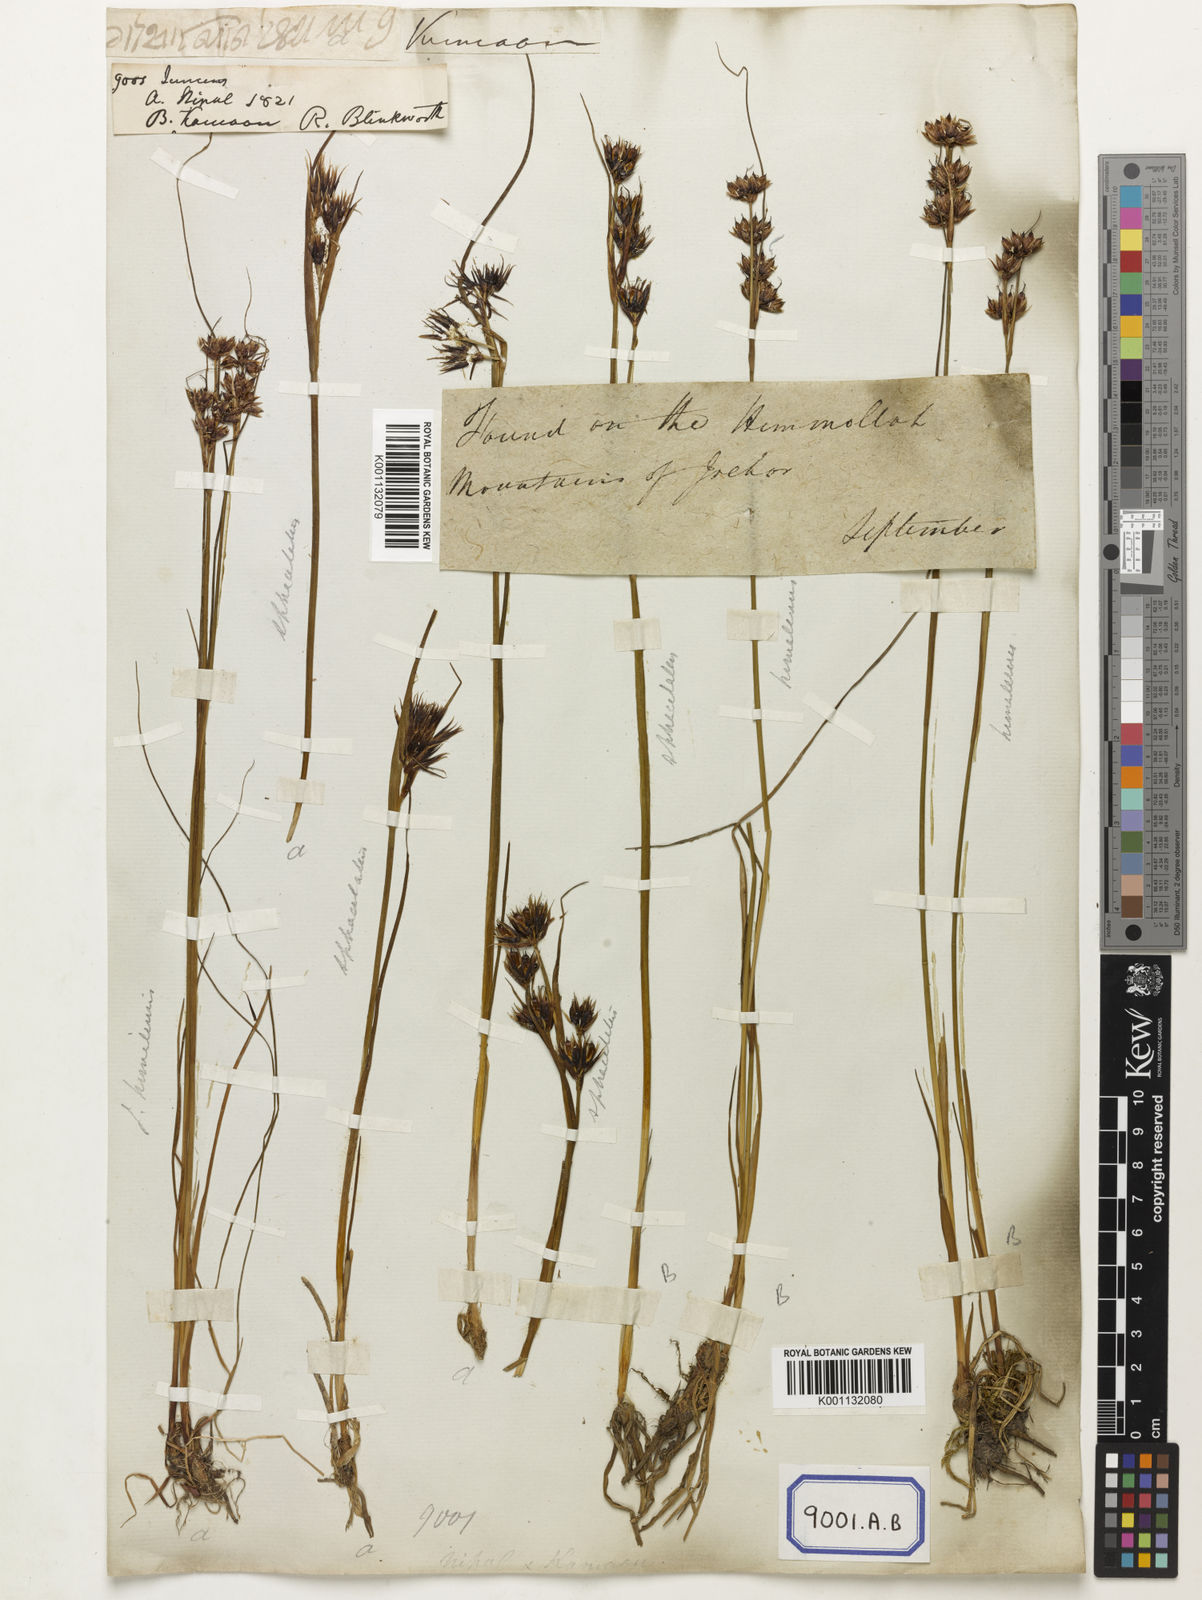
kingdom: Plantae
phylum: Tracheophyta
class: Liliopsida
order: Poales
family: Juncaceae
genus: Juncus
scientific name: Juncus
